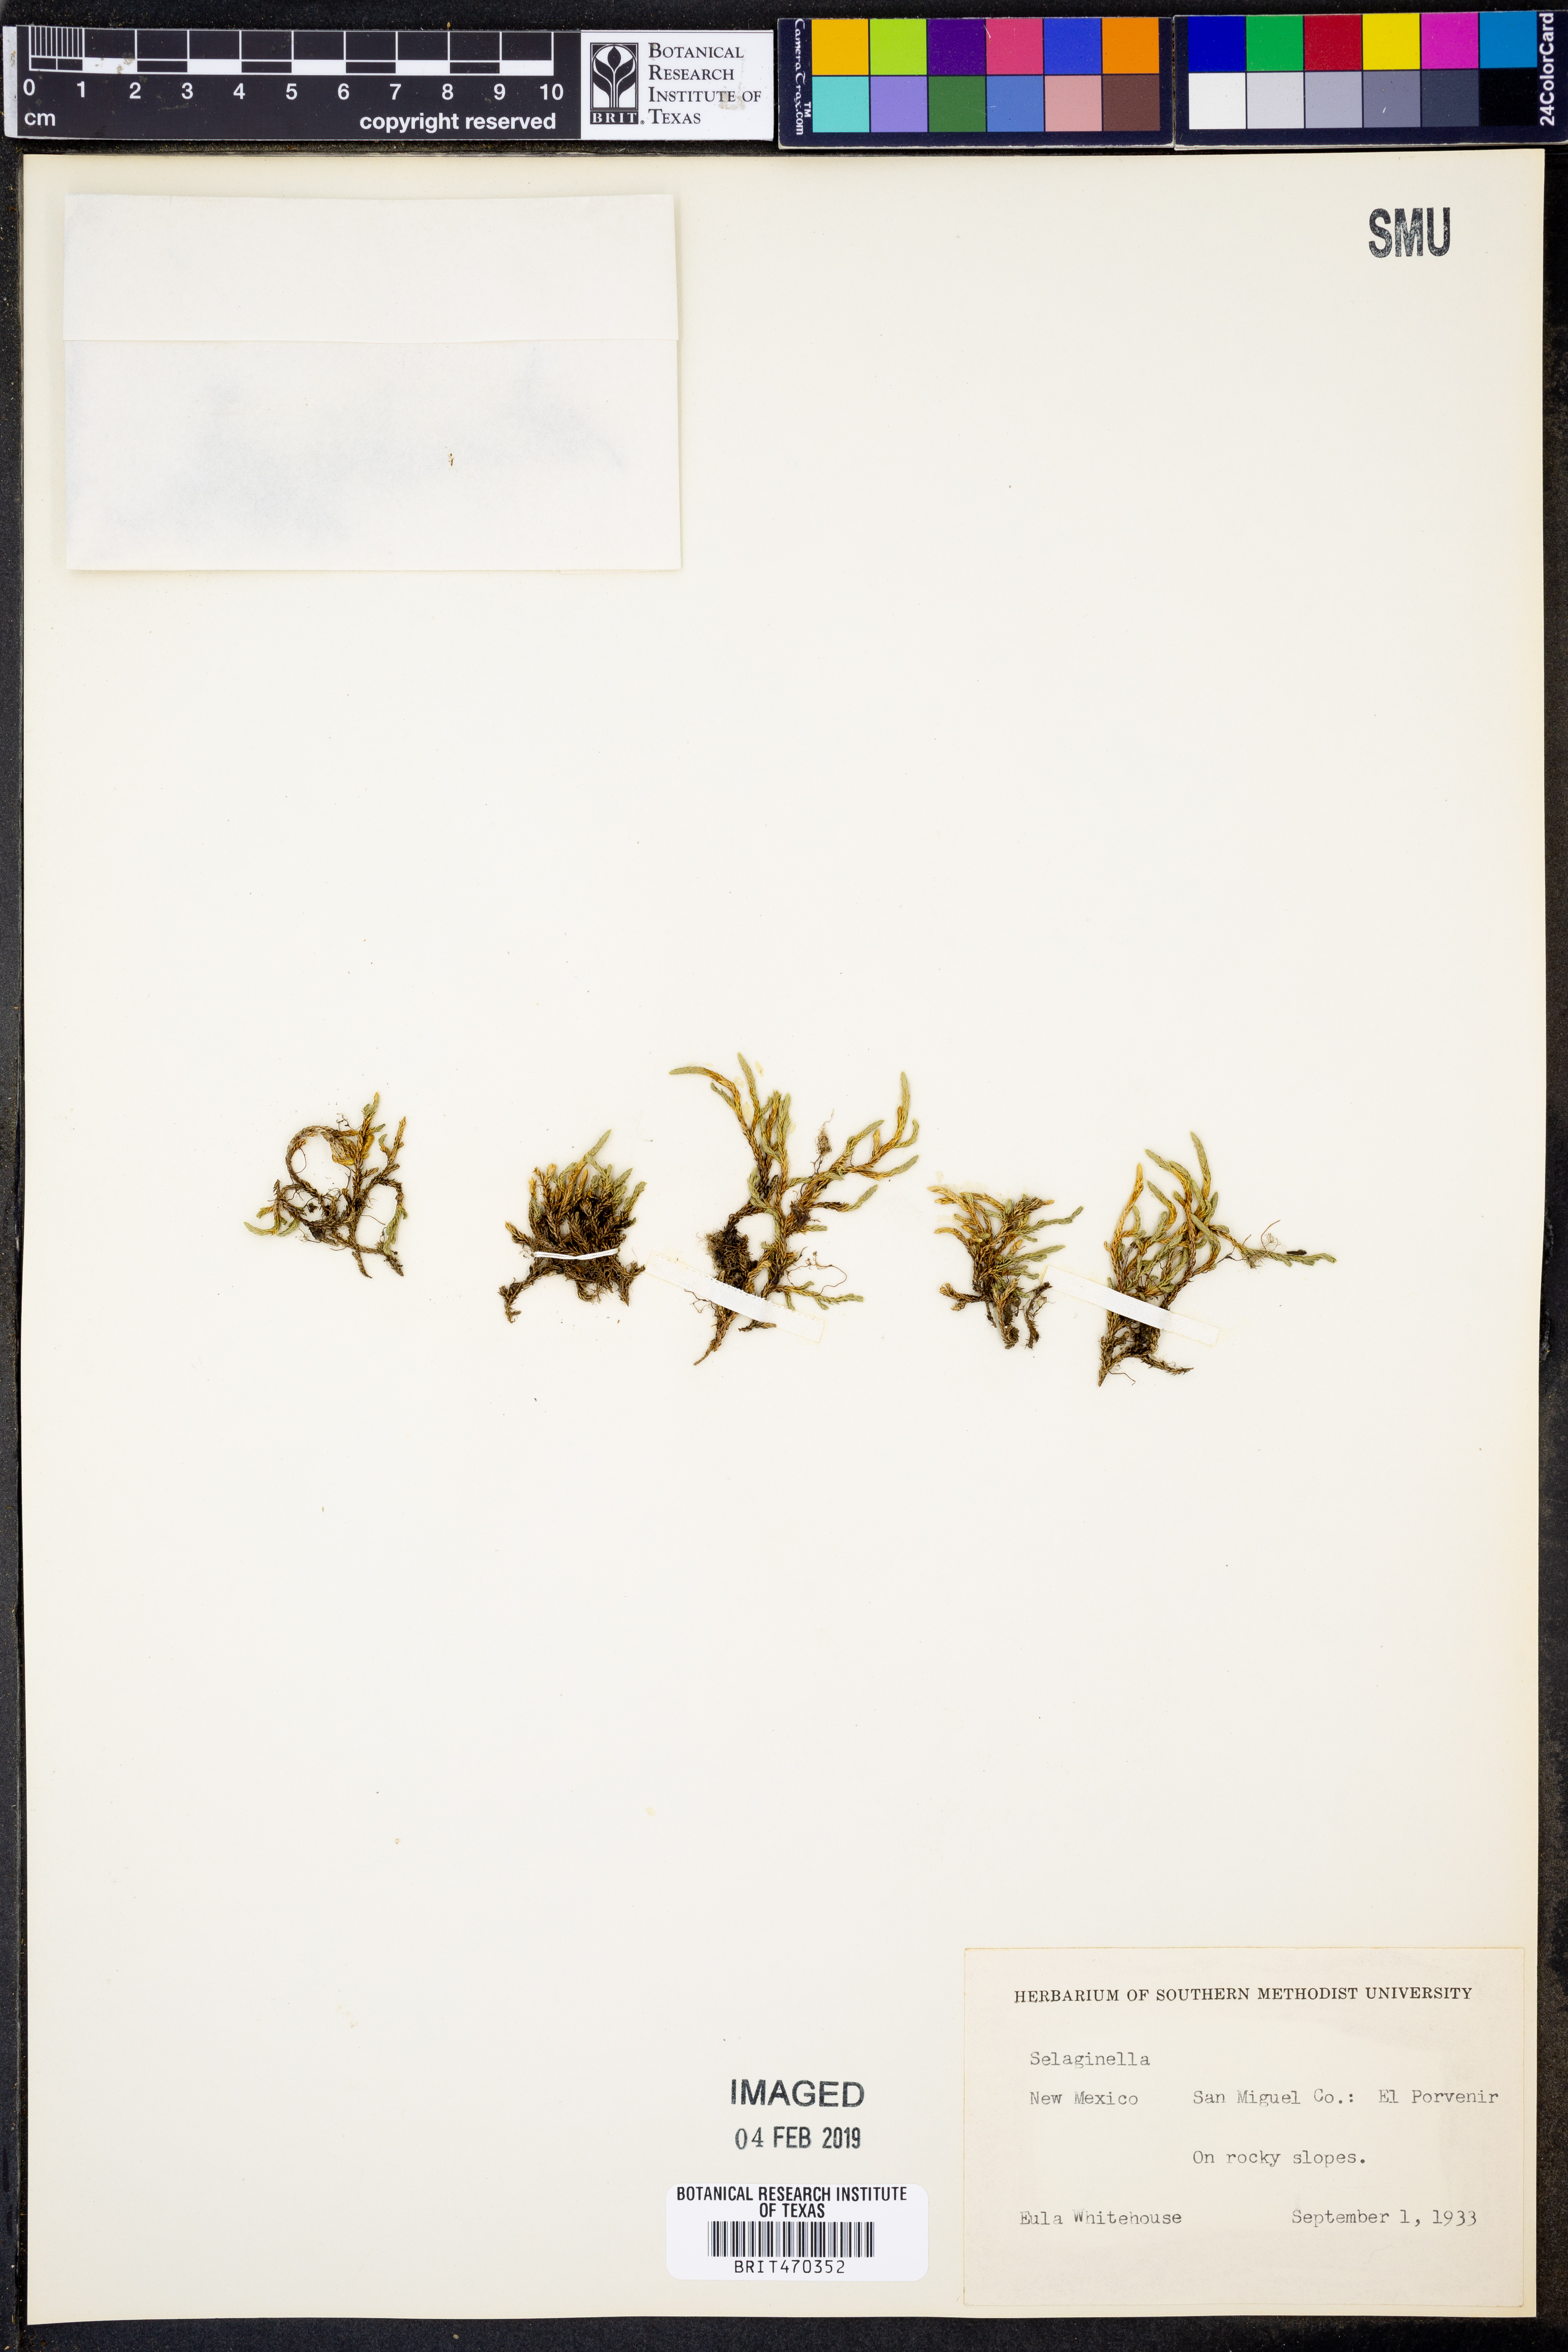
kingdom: Plantae
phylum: Tracheophyta
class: Lycopodiopsida
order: Selaginellales
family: Selaginellaceae
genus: Selaginella
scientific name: Selaginella
